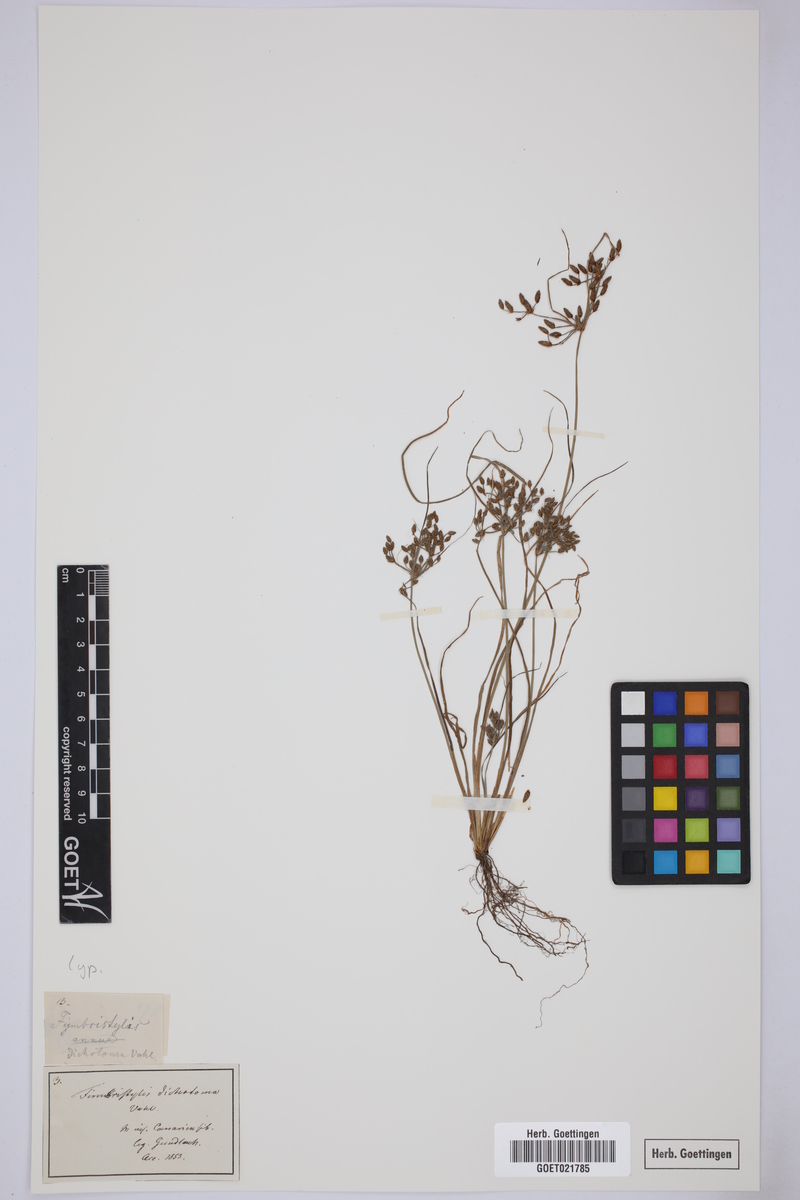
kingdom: Plantae
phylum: Tracheophyta
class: Liliopsida
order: Poales
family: Cyperaceae
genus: Fimbristylis
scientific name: Fimbristylis dichotoma
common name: Forked fimbry
